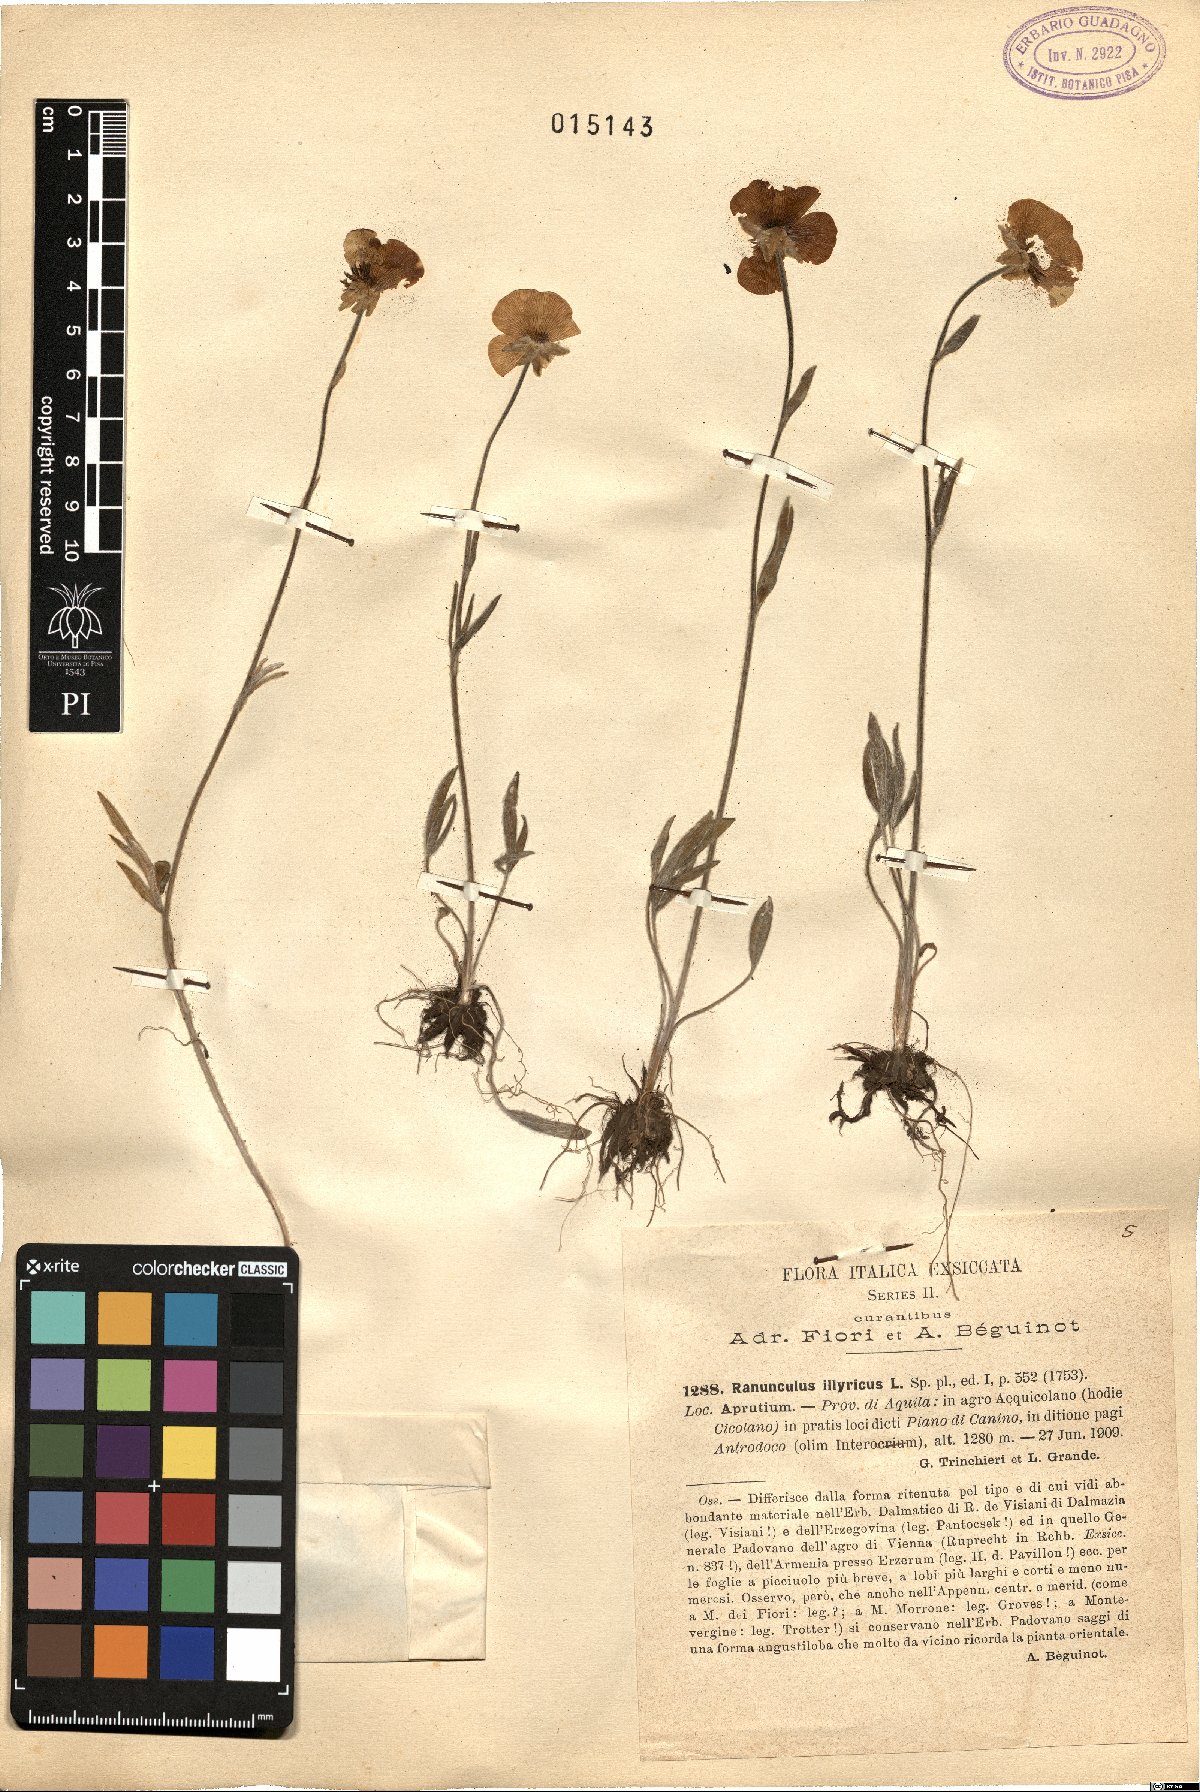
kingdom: Plantae
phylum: Tracheophyta
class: Magnoliopsida
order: Ranunculales
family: Ranunculaceae
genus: Ranunculus
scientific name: Ranunculus illyricus
